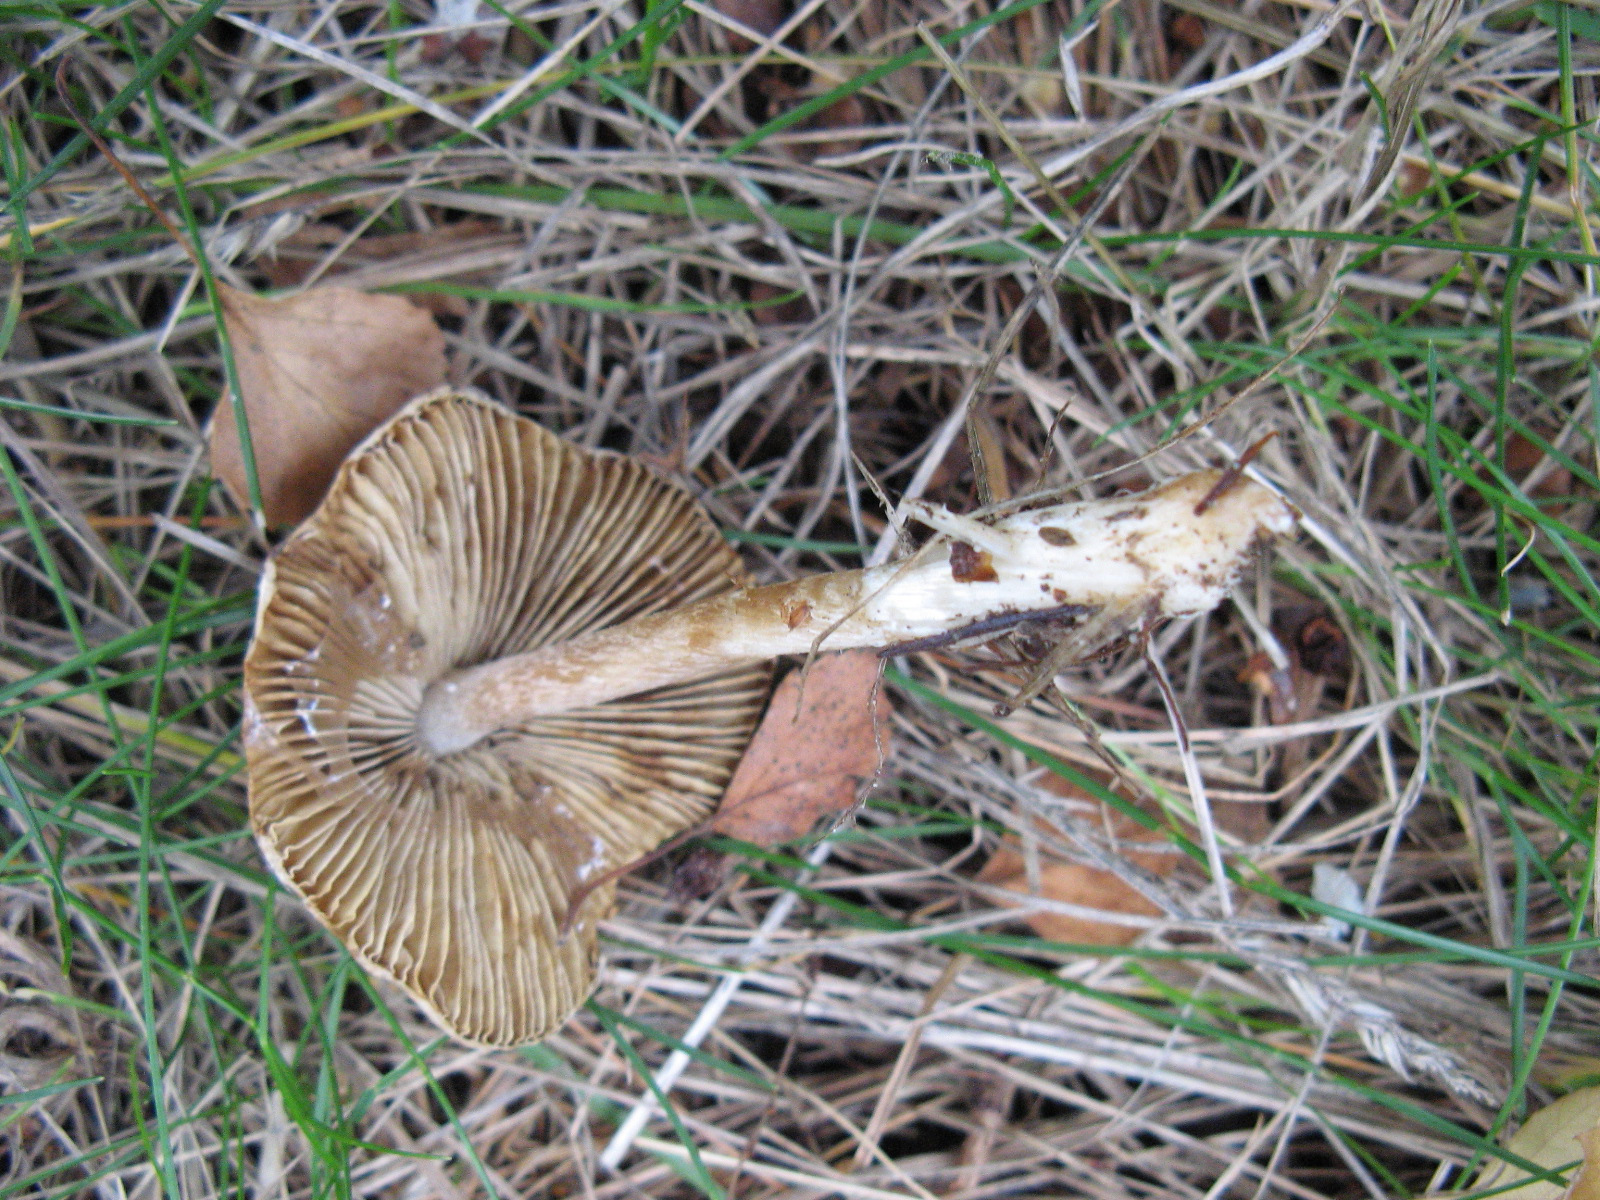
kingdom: Fungi
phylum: Basidiomycota
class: Agaricomycetes
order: Agaricales
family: Inocybaceae
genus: Pseudosperma
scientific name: Pseudosperma
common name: trævlhat
